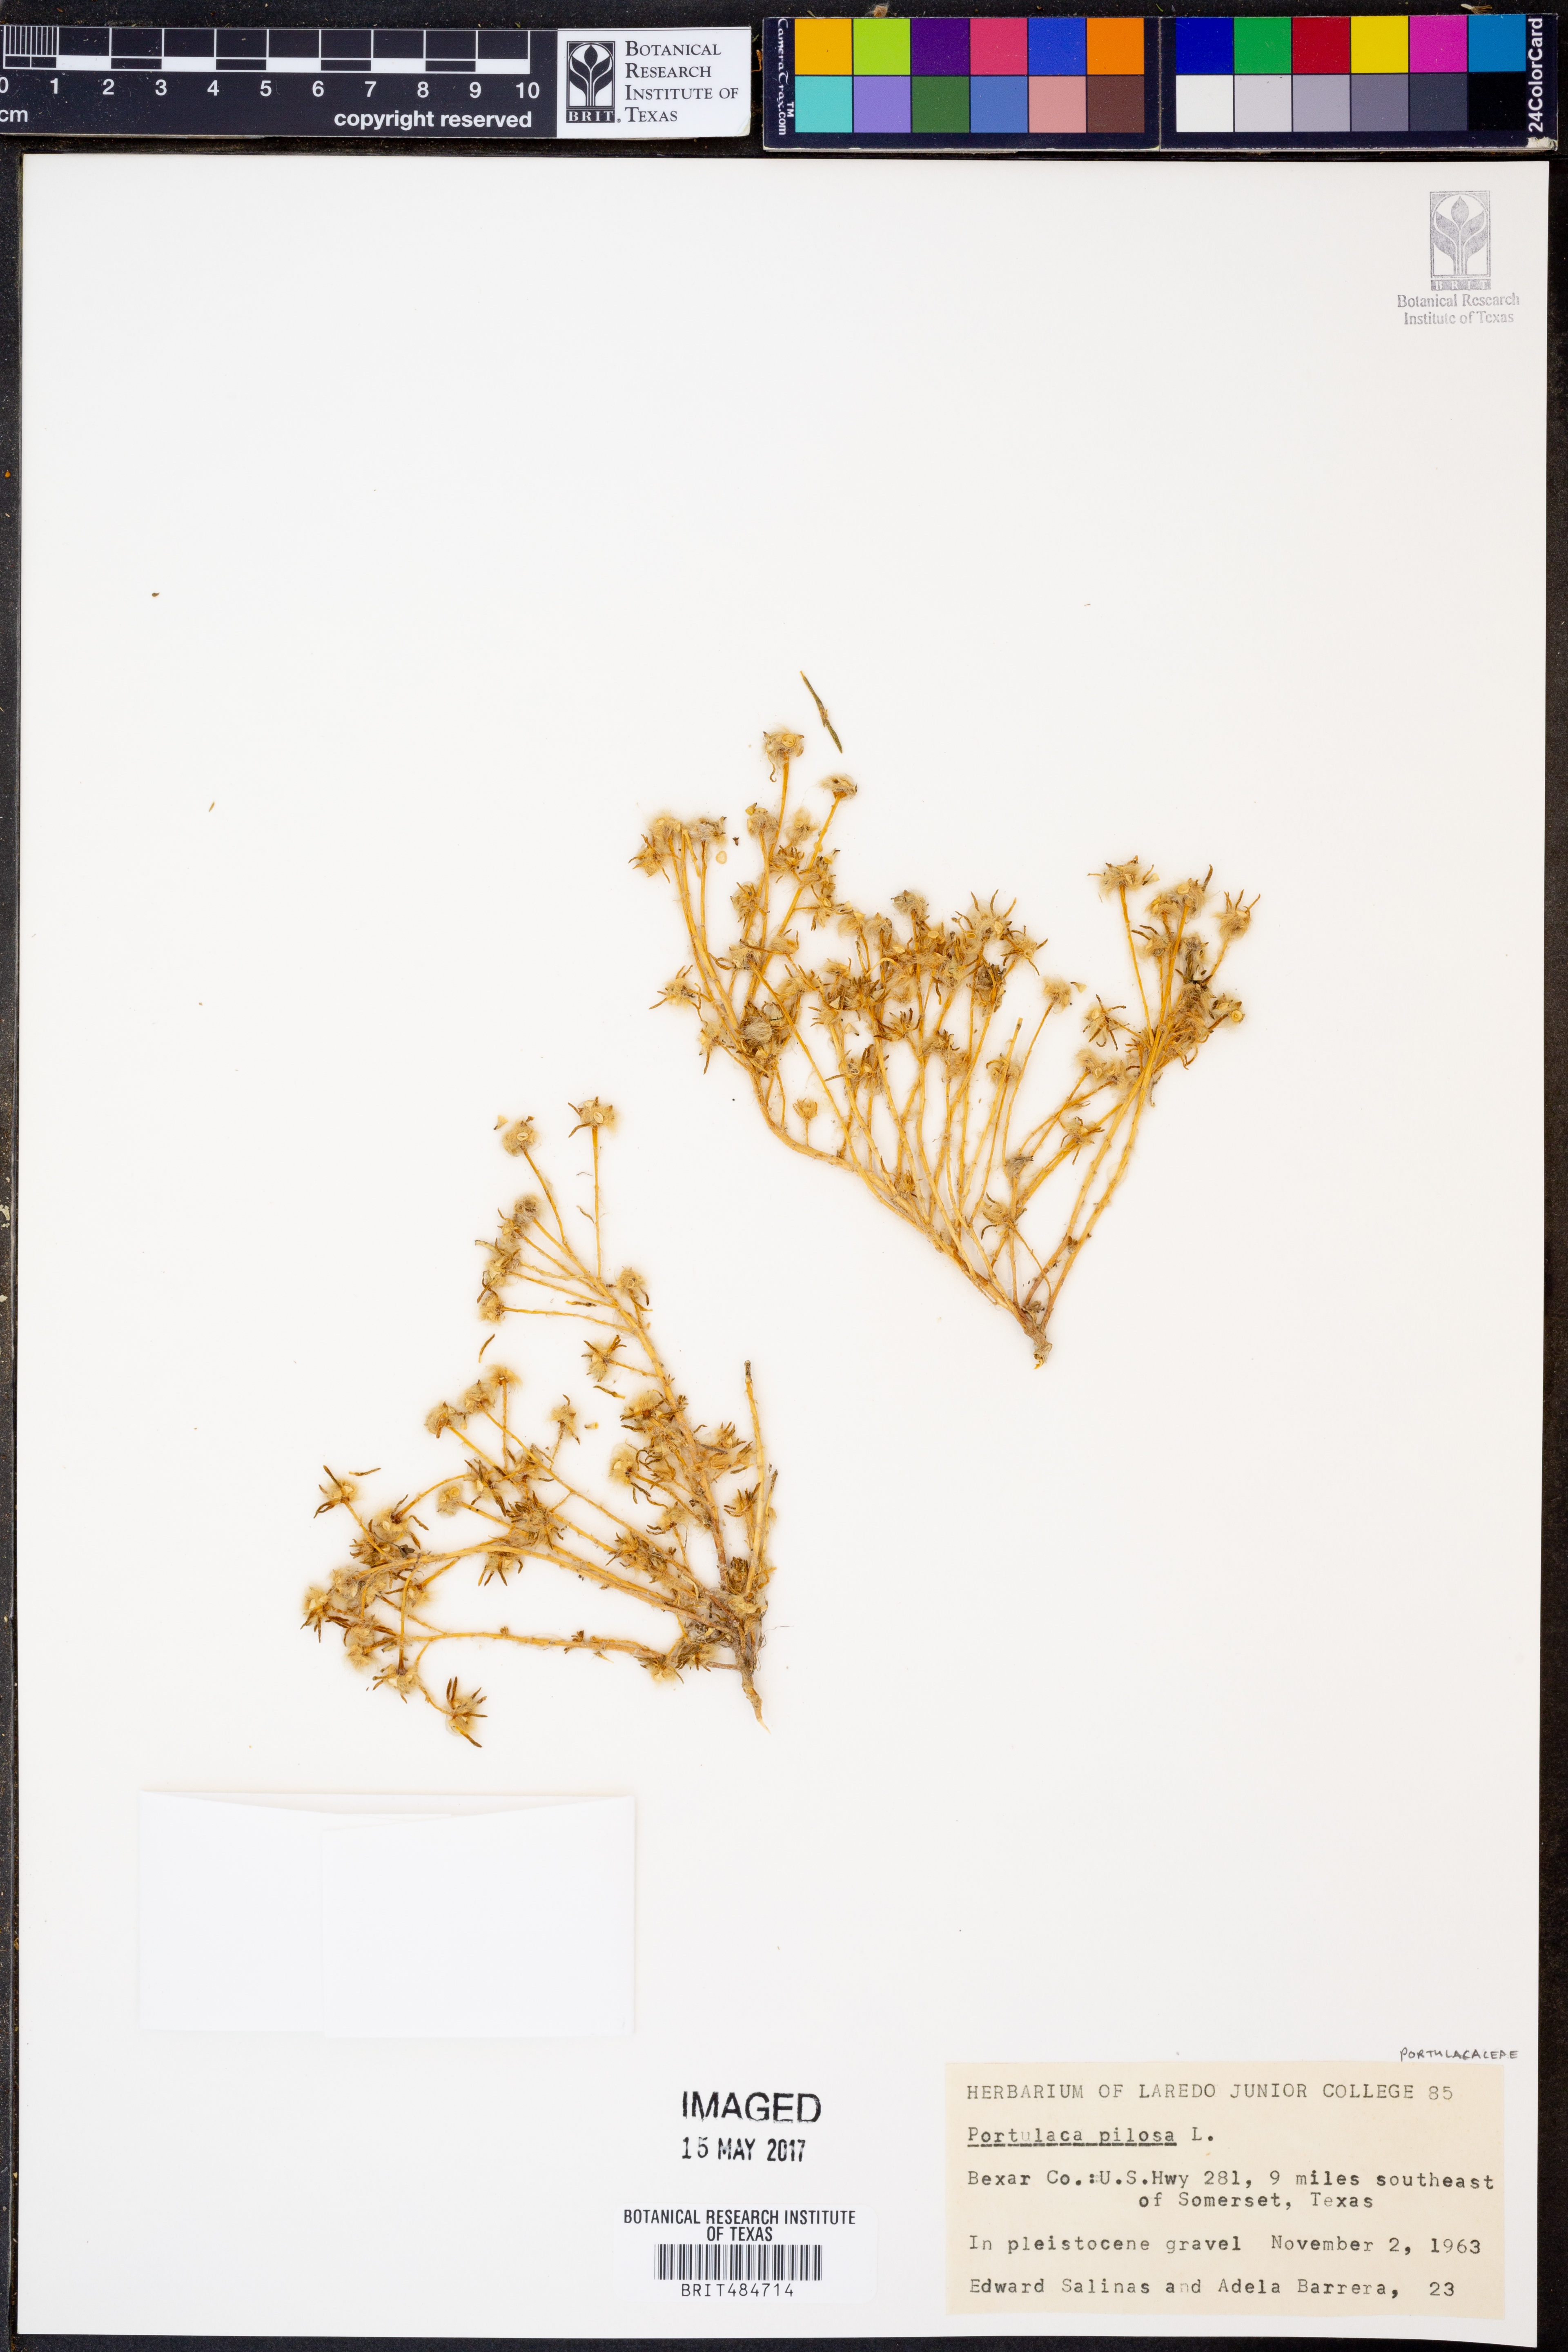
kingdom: Plantae
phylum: Tracheophyta
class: Magnoliopsida
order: Caryophyllales
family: Portulacaceae
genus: Portulaca
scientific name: Portulaca pilosa
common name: Kiss me quick
